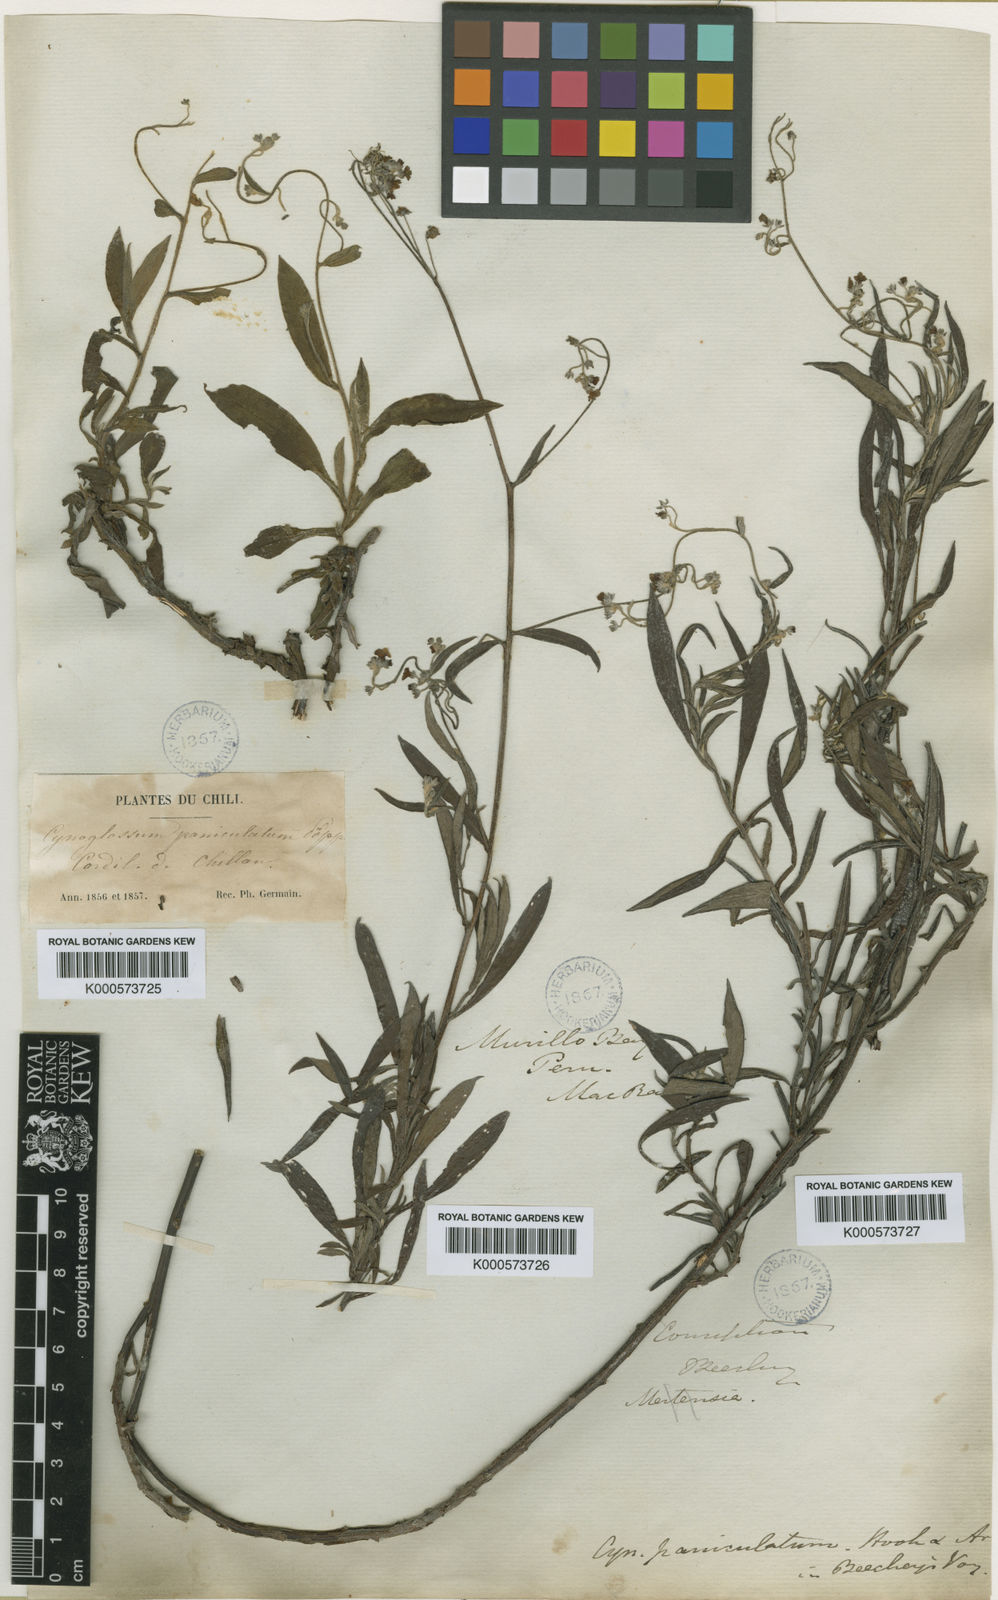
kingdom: Plantae
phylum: Tracheophyta
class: Magnoliopsida
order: Boraginales
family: Boraginaceae
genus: Cynoglossum
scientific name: Cynoglossum
